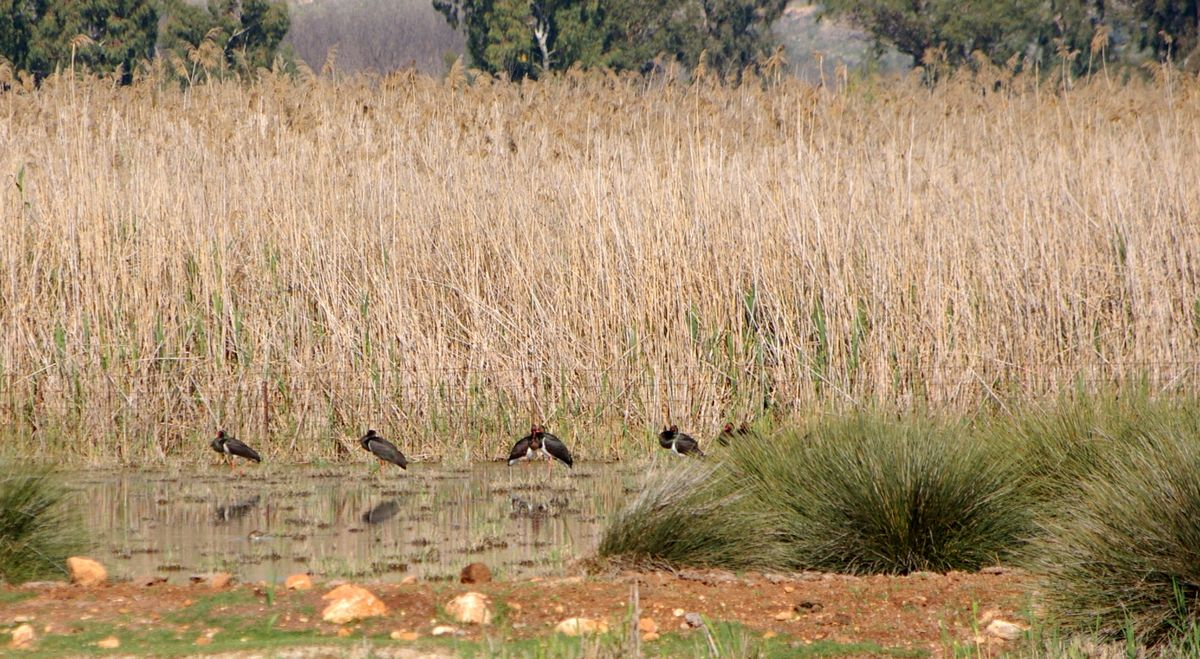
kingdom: Animalia
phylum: Chordata
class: Aves
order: Ciconiiformes
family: Ciconiidae
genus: Ciconia
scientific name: Ciconia nigra
